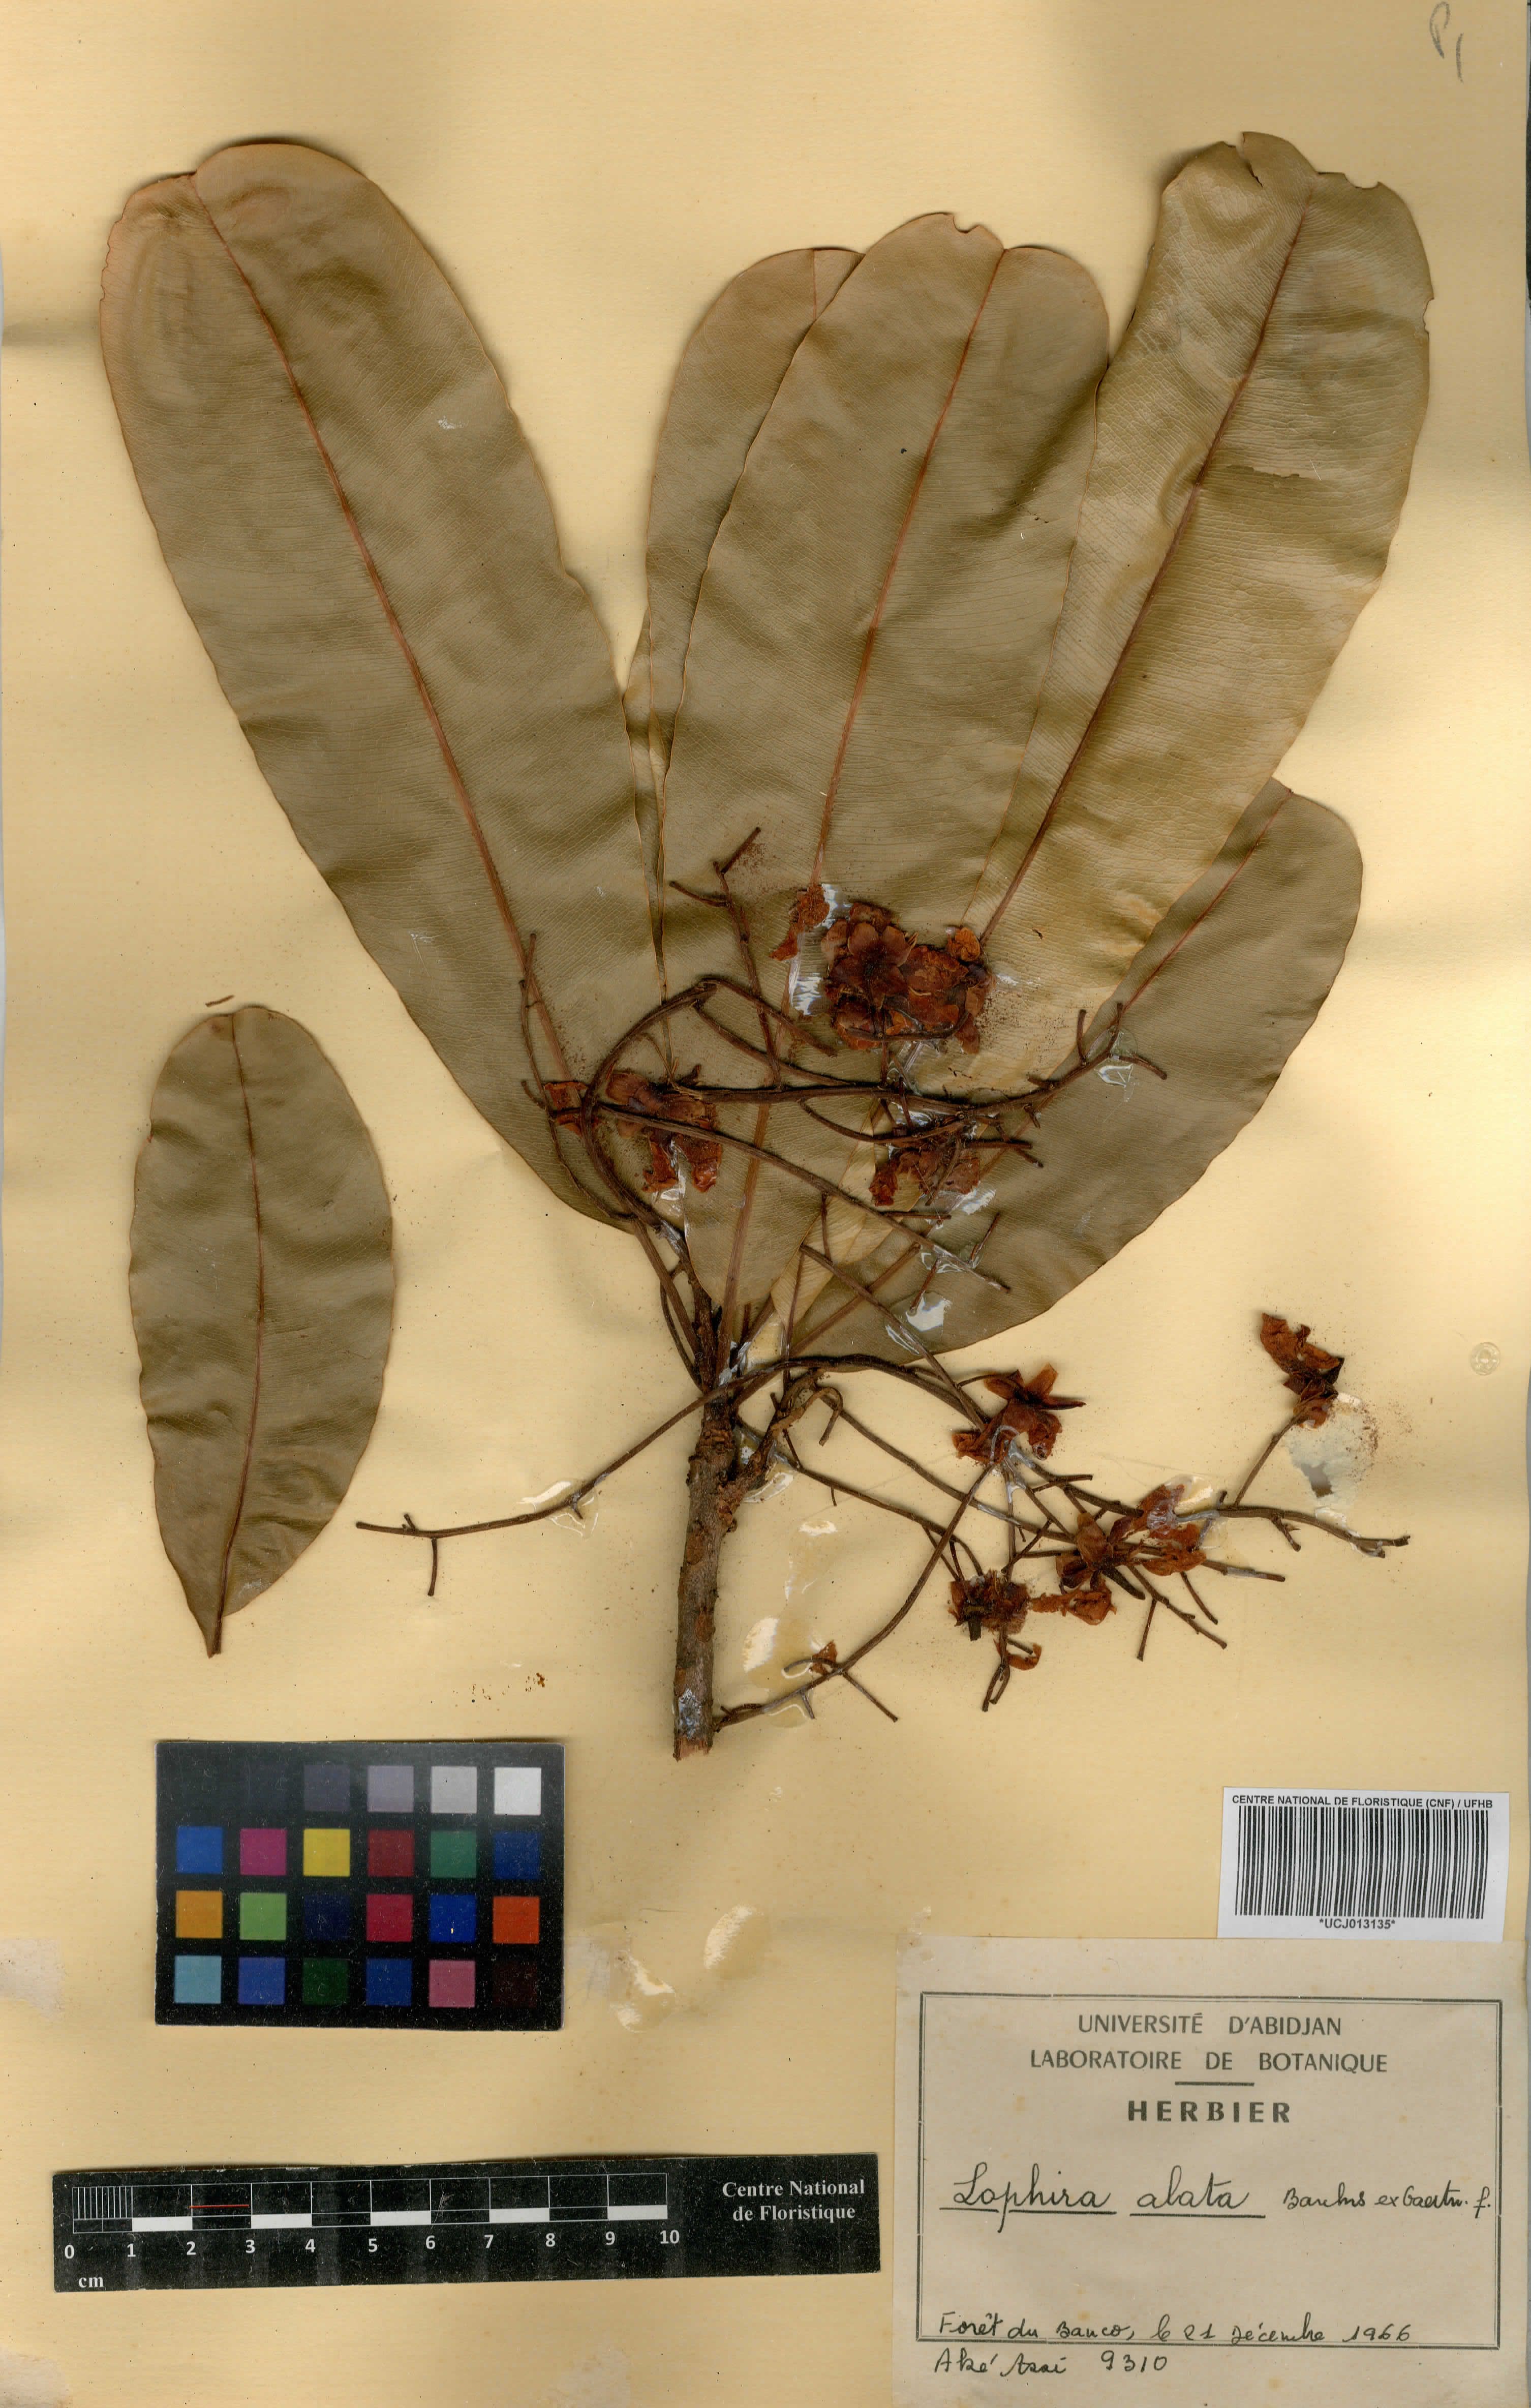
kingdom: Plantae
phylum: Tracheophyta
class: Magnoliopsida
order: Malpighiales
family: Ochnaceae
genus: Lophira
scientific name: Lophira alata
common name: Azobe
